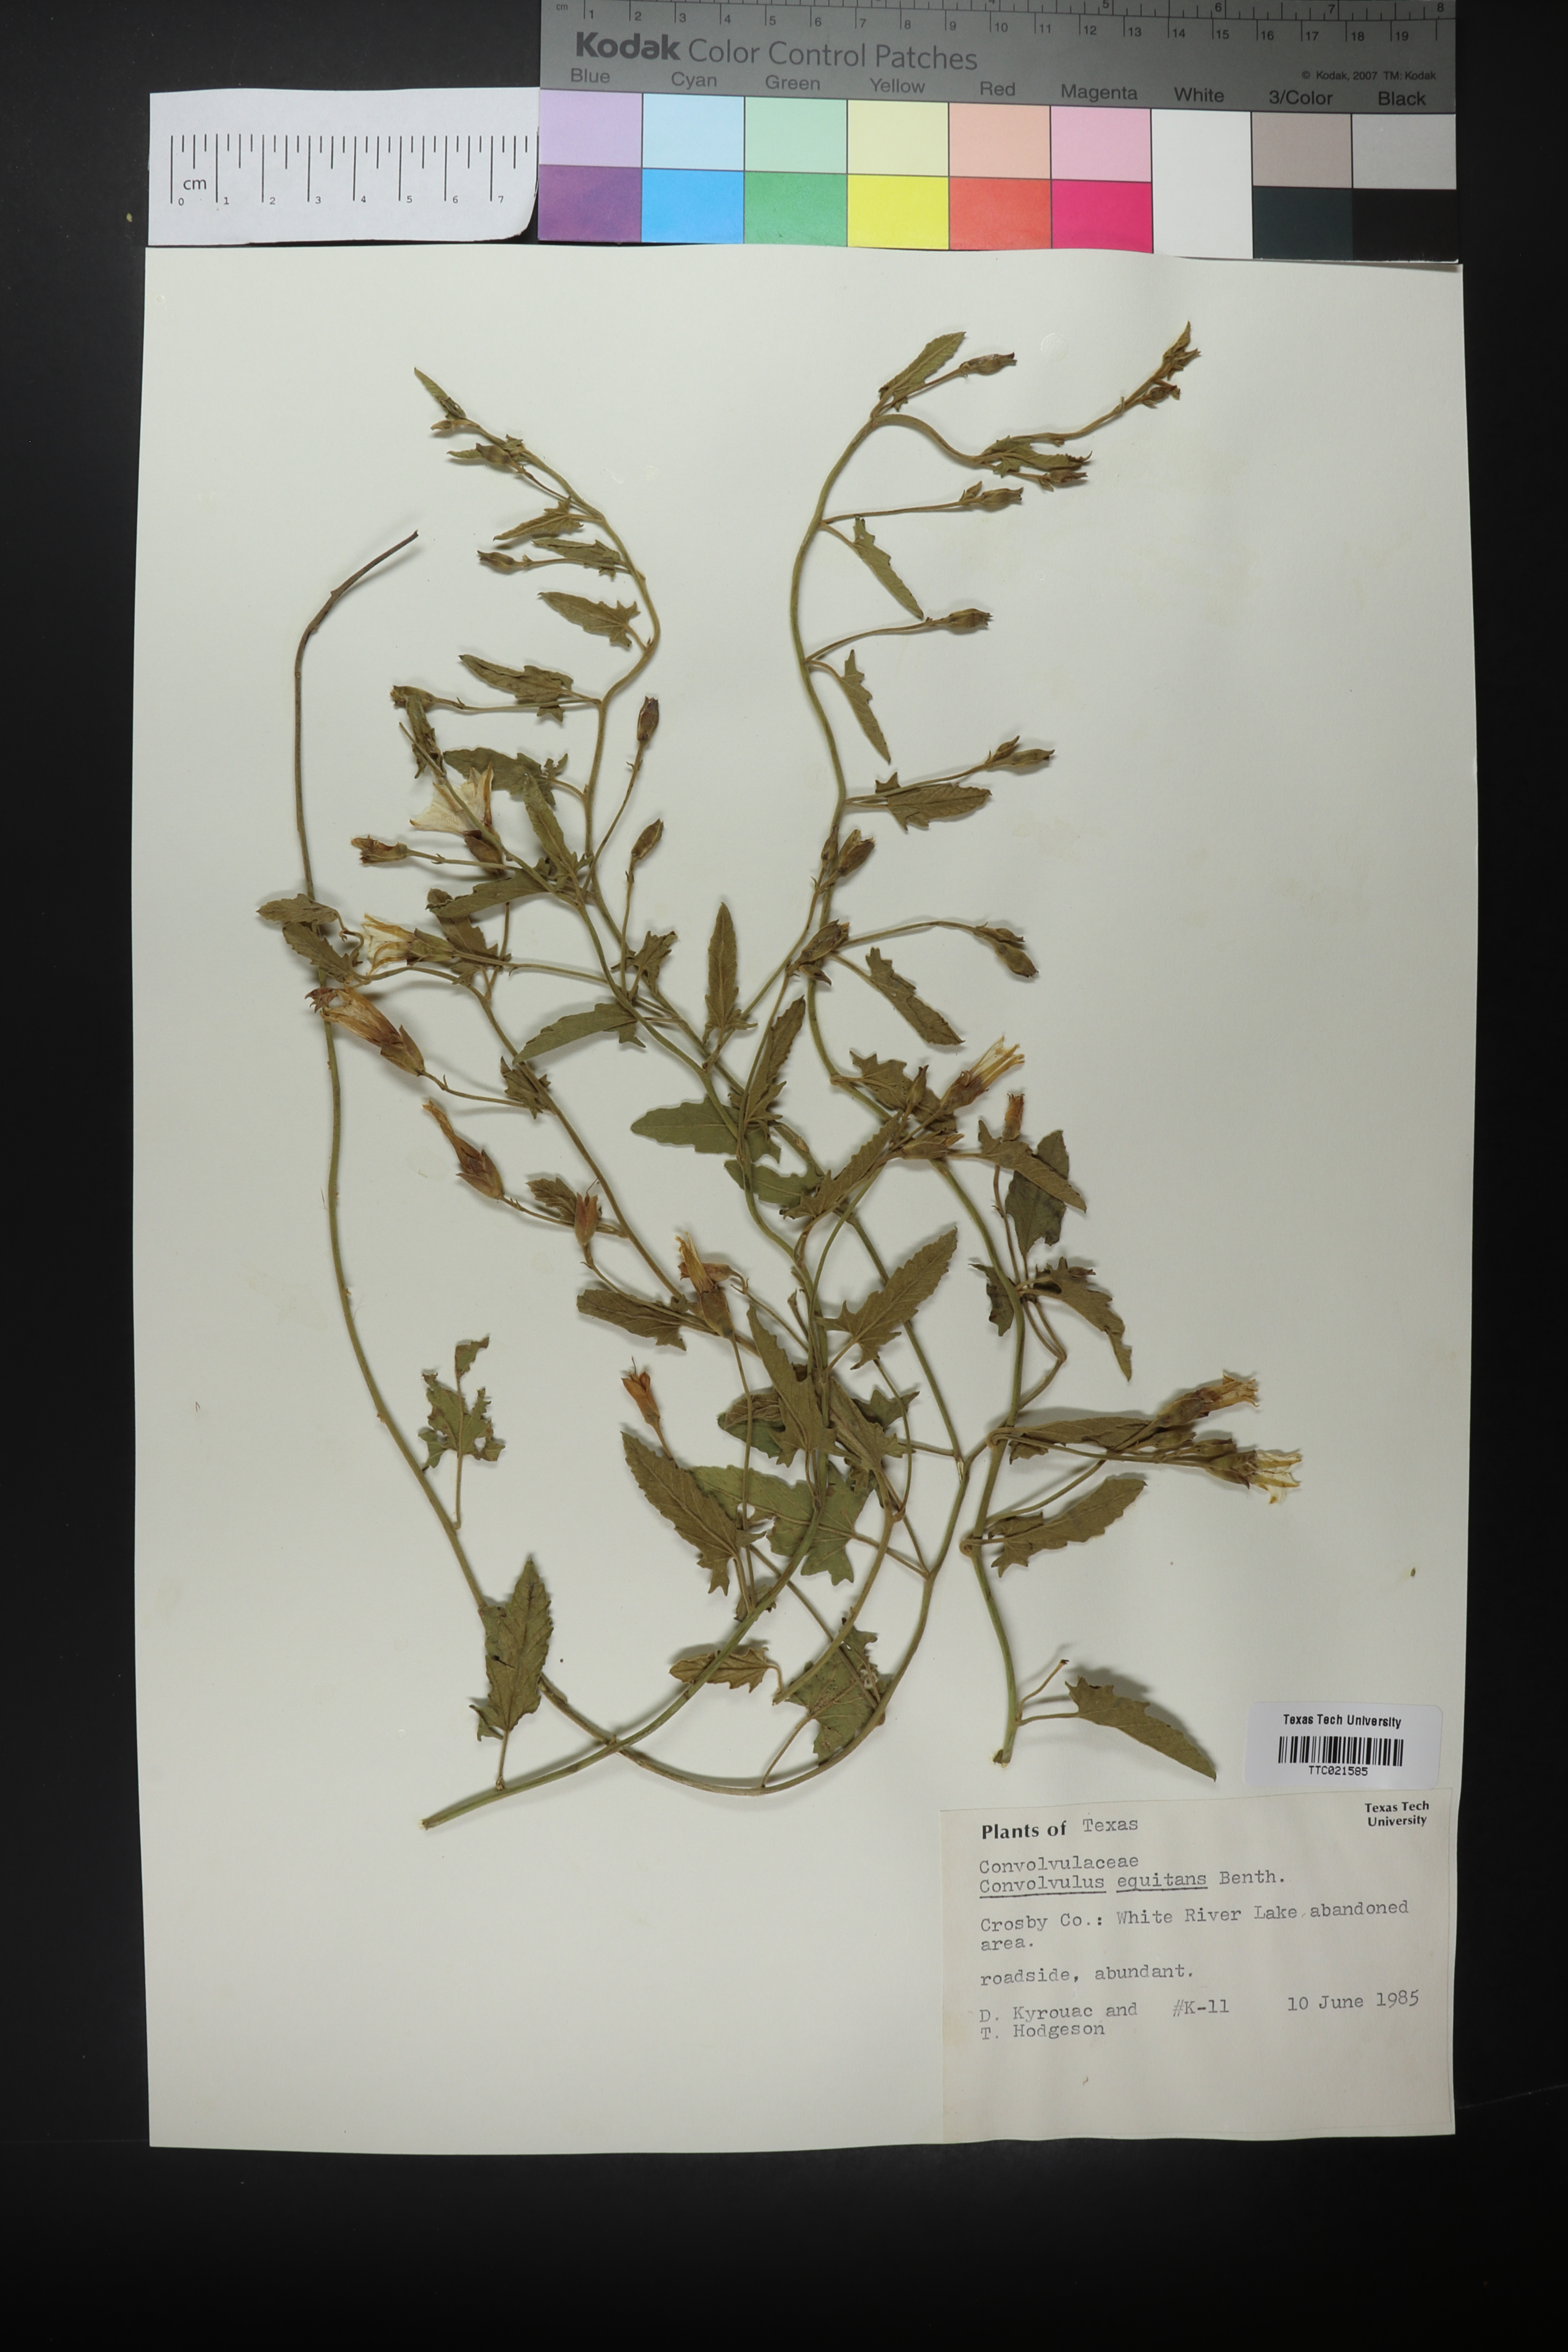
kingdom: Plantae
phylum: Tracheophyta
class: Magnoliopsida
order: Solanales
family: Convolvulaceae
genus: Convolvulus
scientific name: Convolvulus equitans
